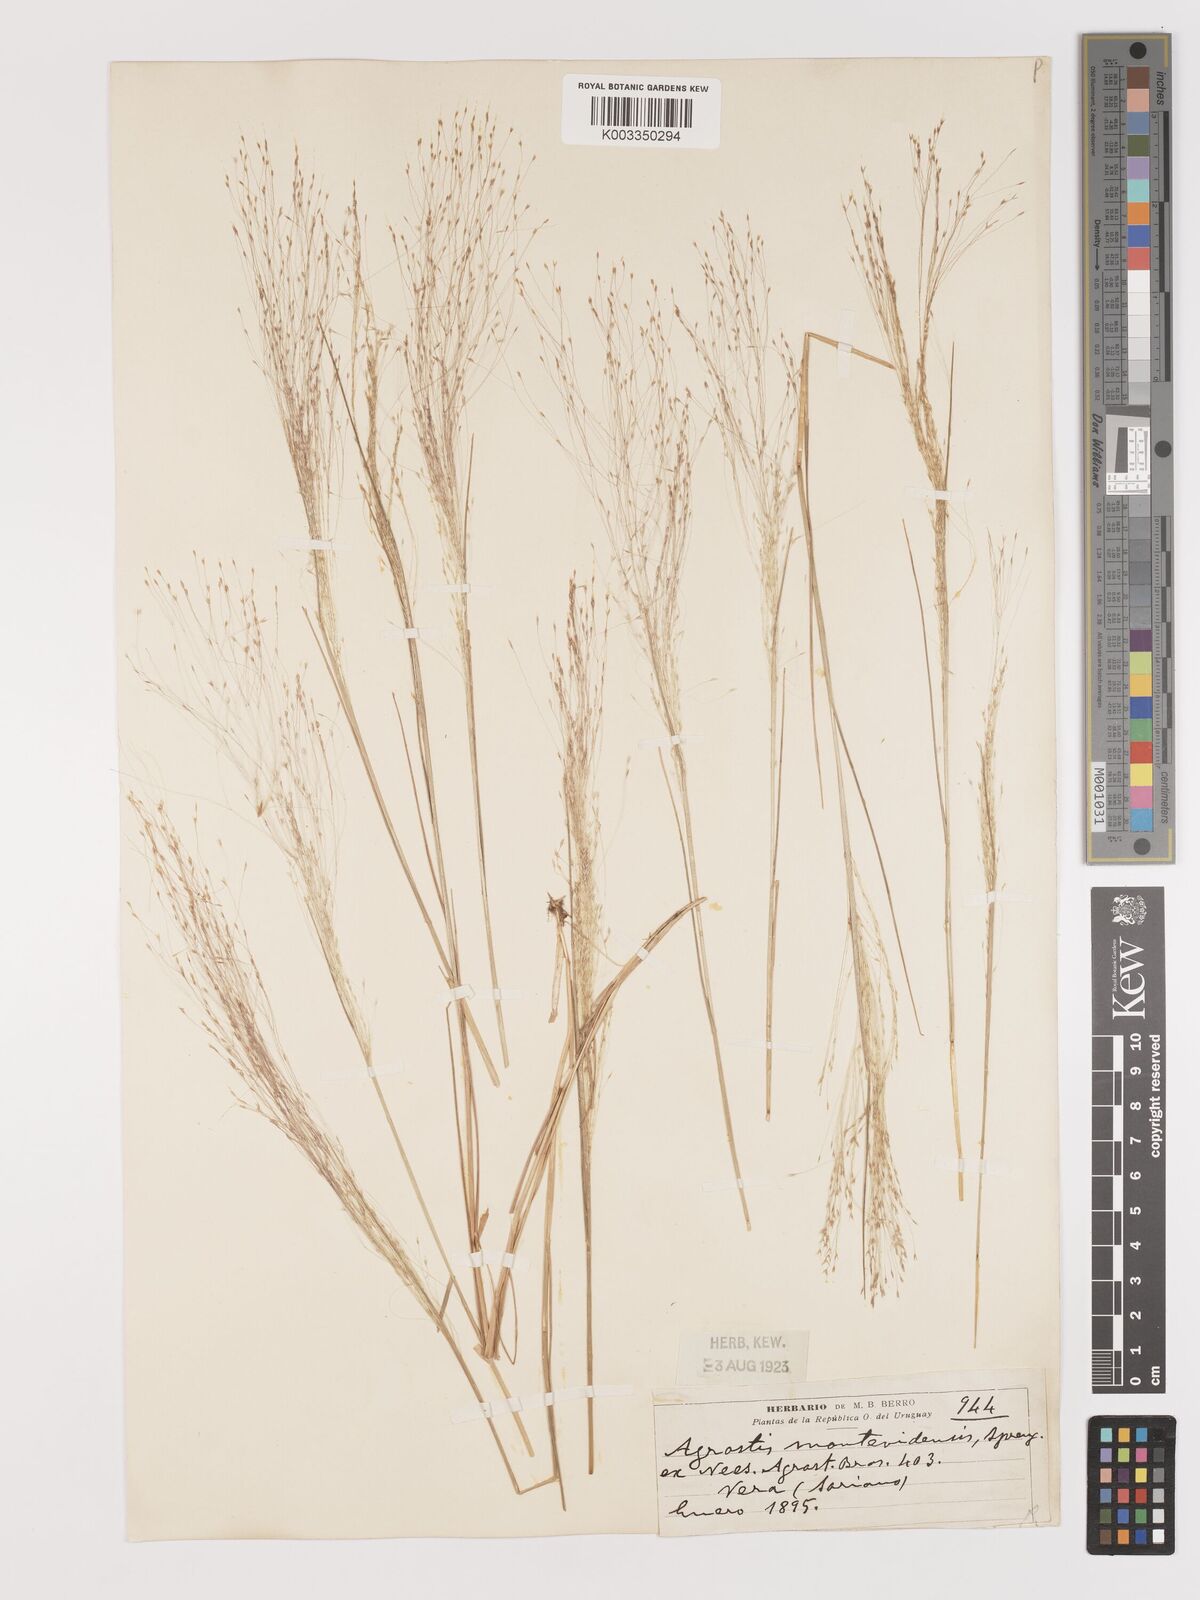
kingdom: Plantae
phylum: Tracheophyta
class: Liliopsida
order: Poales
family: Poaceae
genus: Agrostis
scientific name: Agrostis
